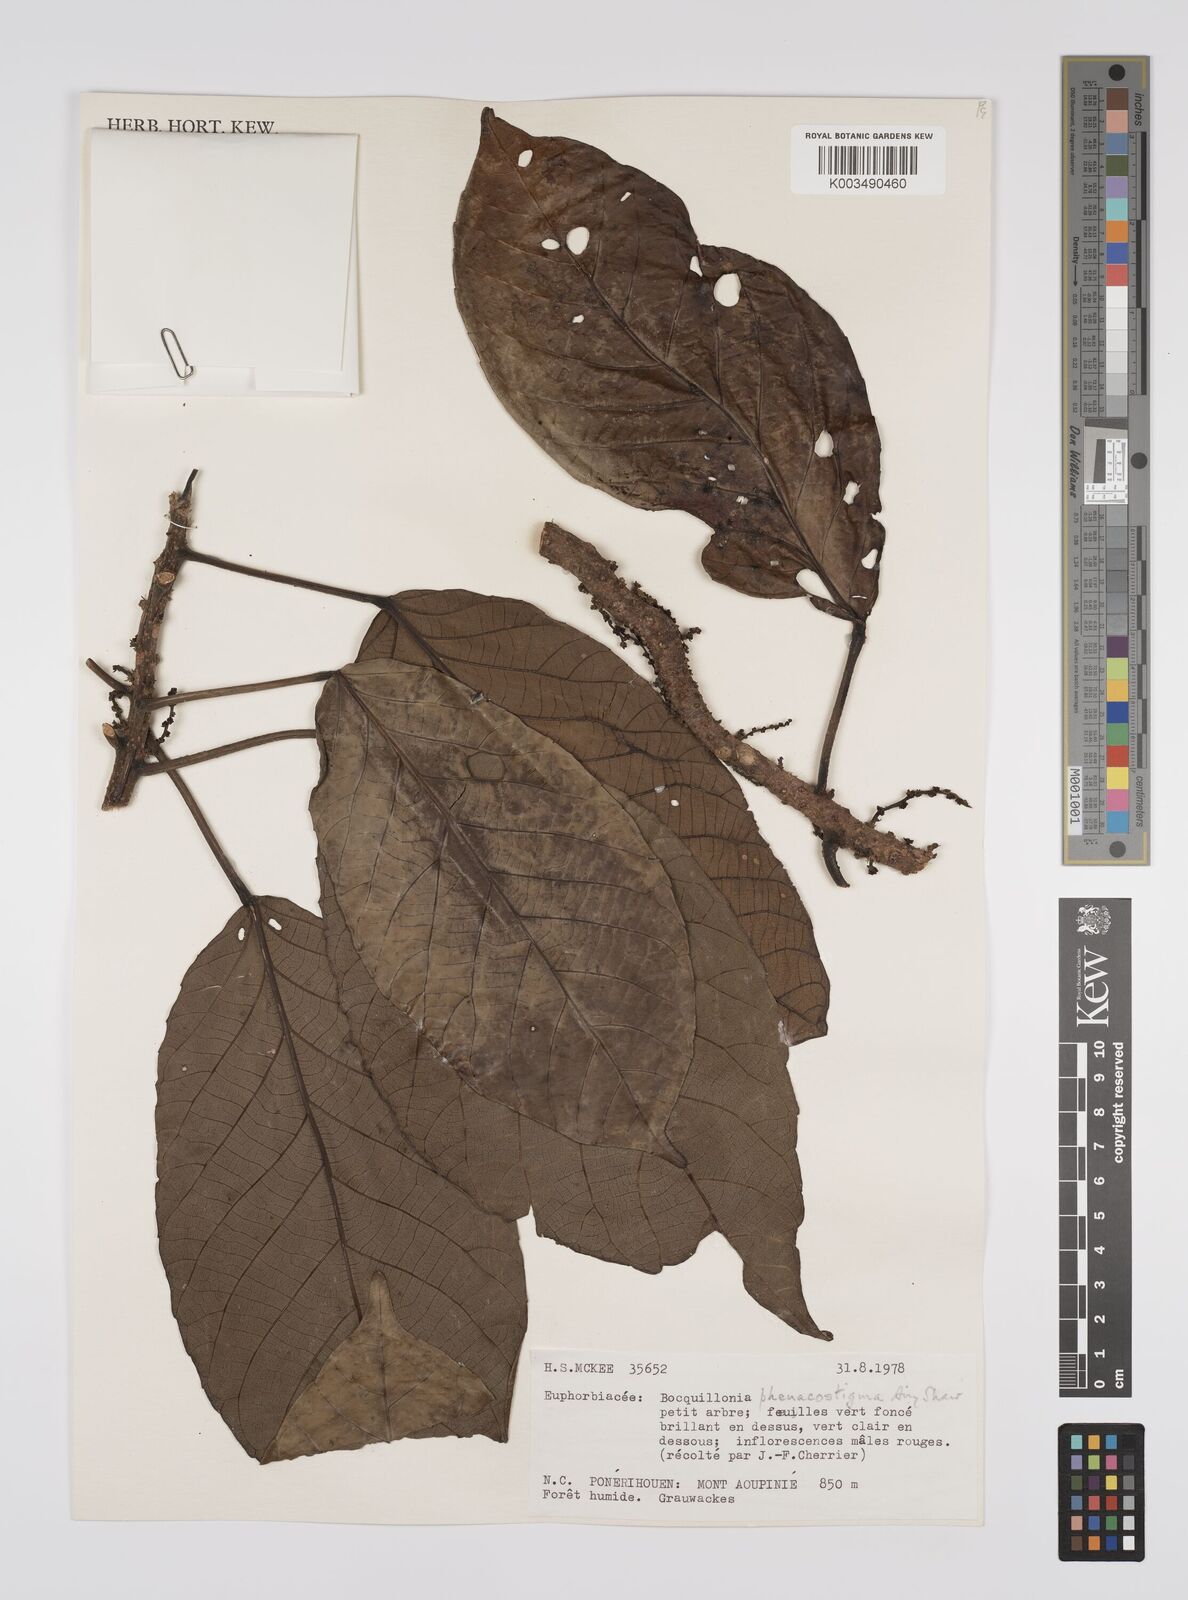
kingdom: Plantae
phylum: Tracheophyta
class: Magnoliopsida
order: Malpighiales
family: Euphorbiaceae
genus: Bocquillonia
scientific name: Bocquillonia phenacostigma
